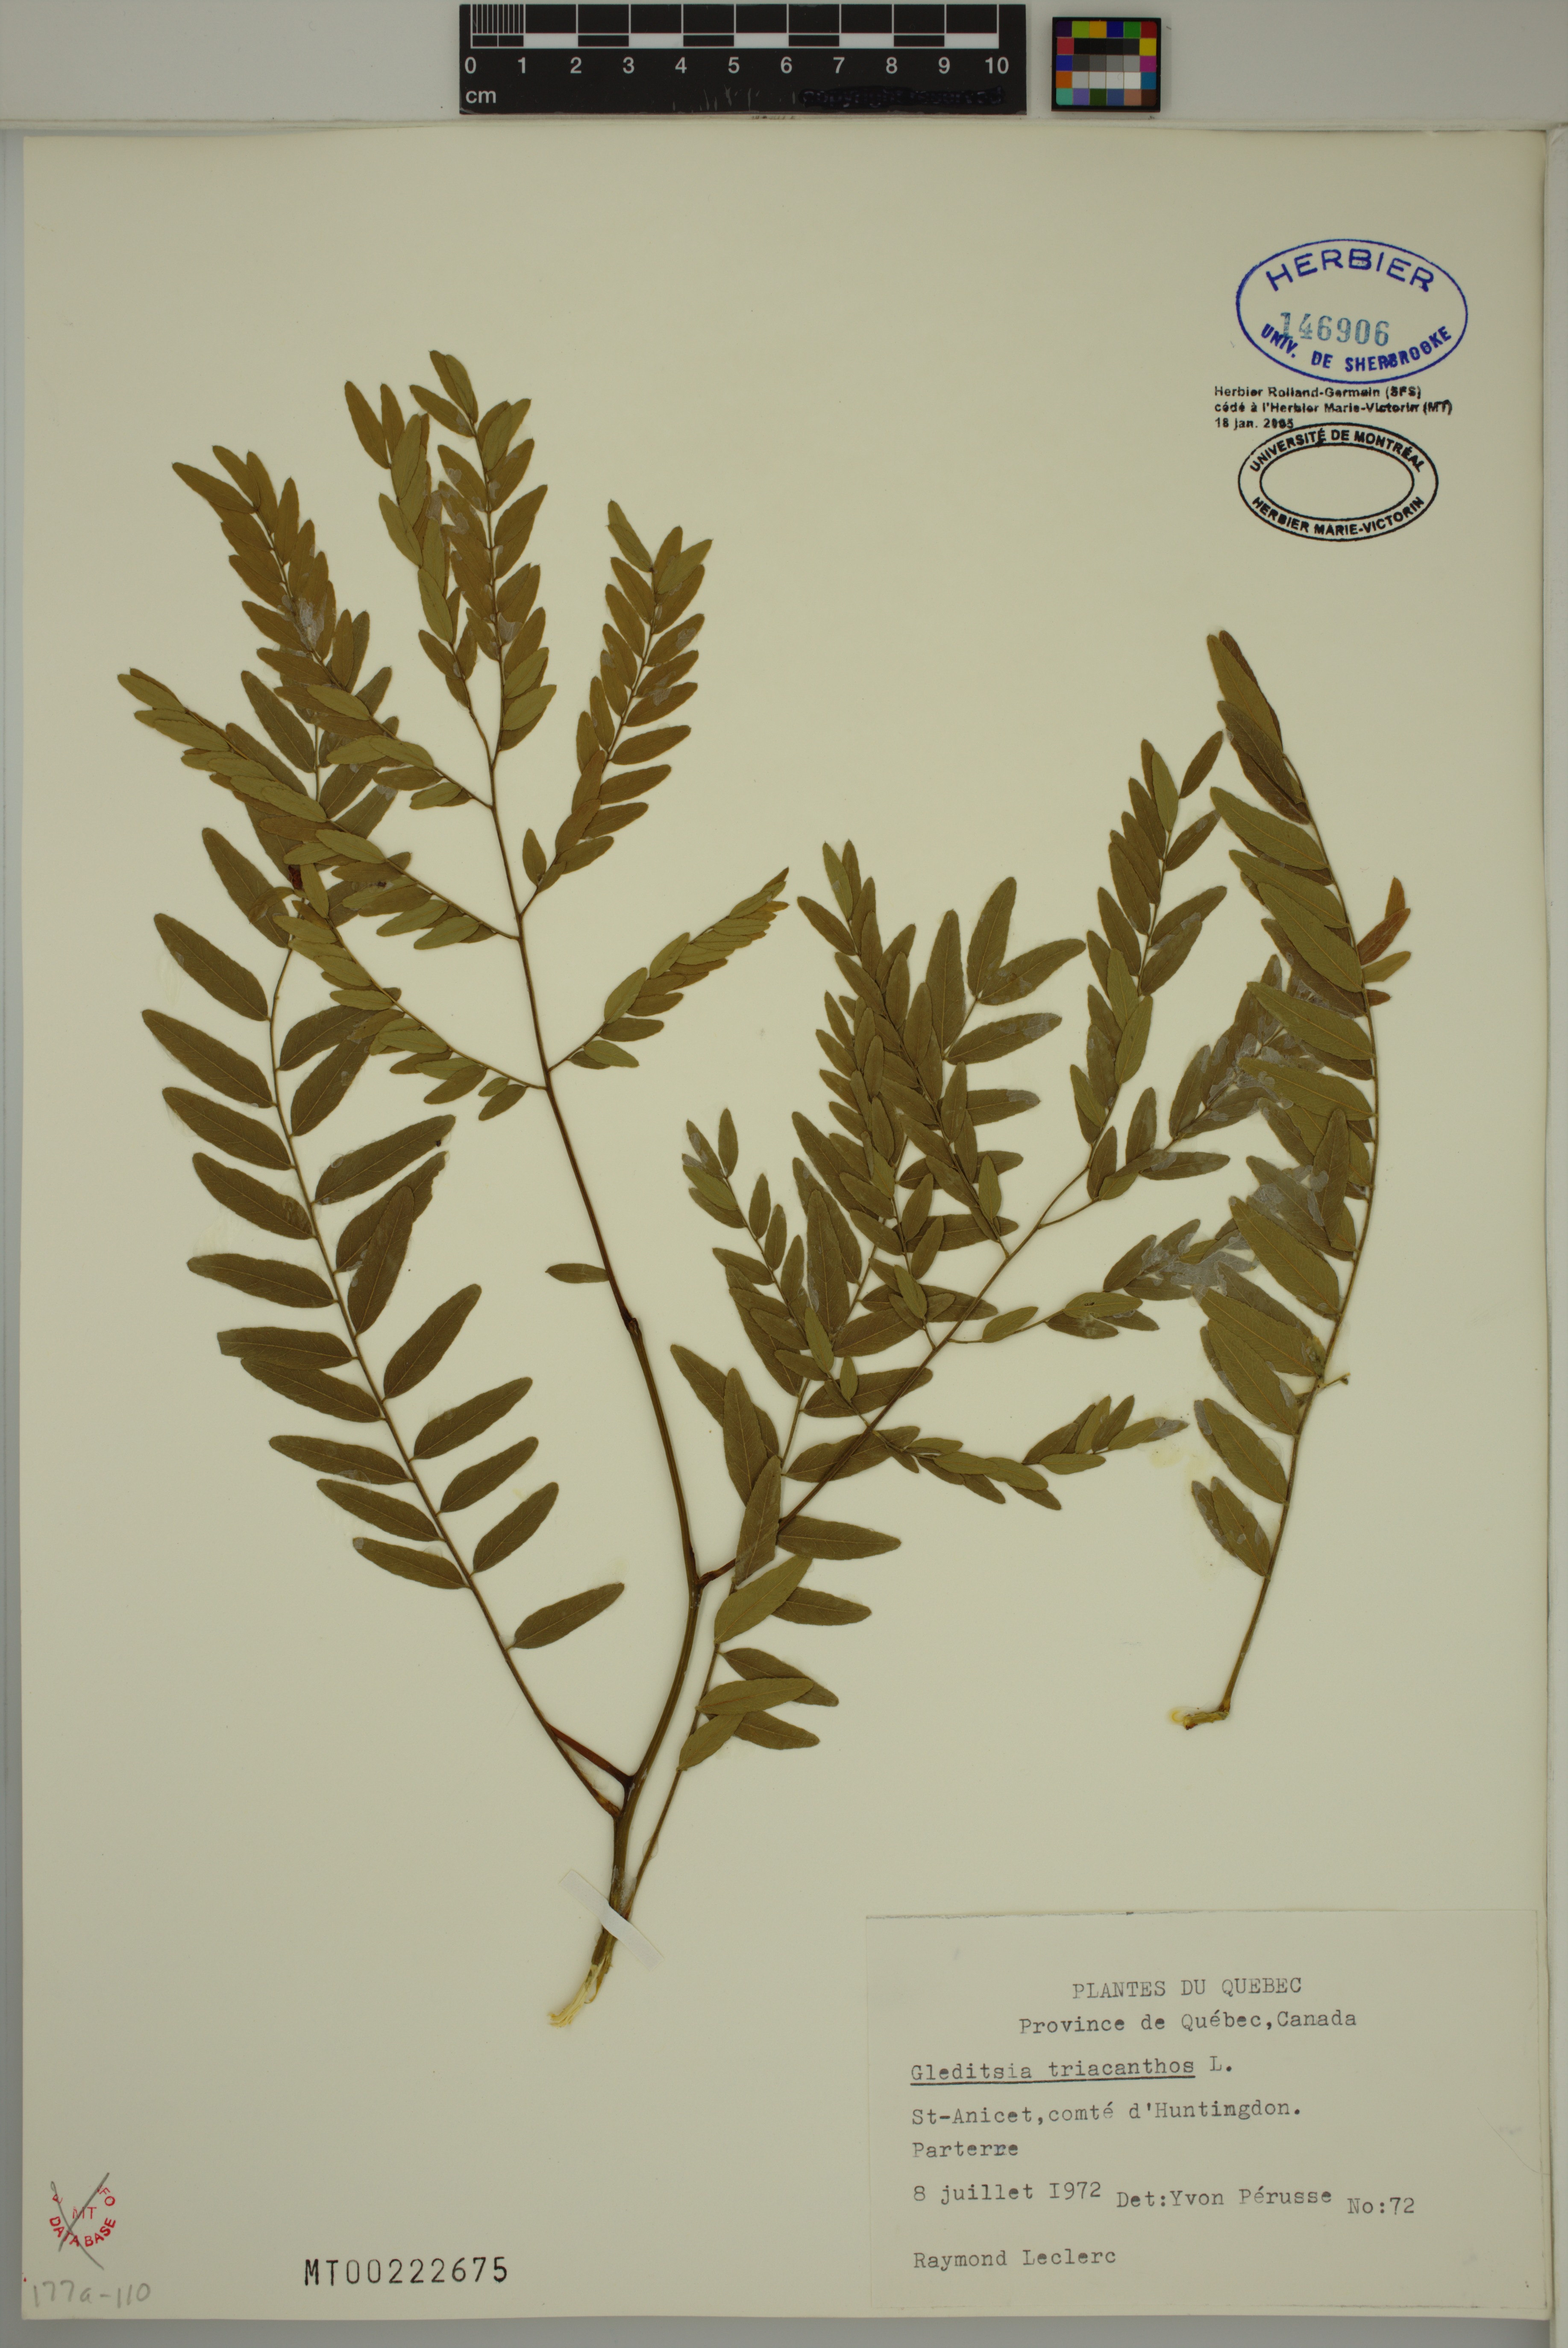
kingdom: Plantae
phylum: Tracheophyta
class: Magnoliopsida
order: Fabales
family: Fabaceae
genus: Gleditsia
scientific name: Gleditsia triacanthos
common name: Common honeylocust
